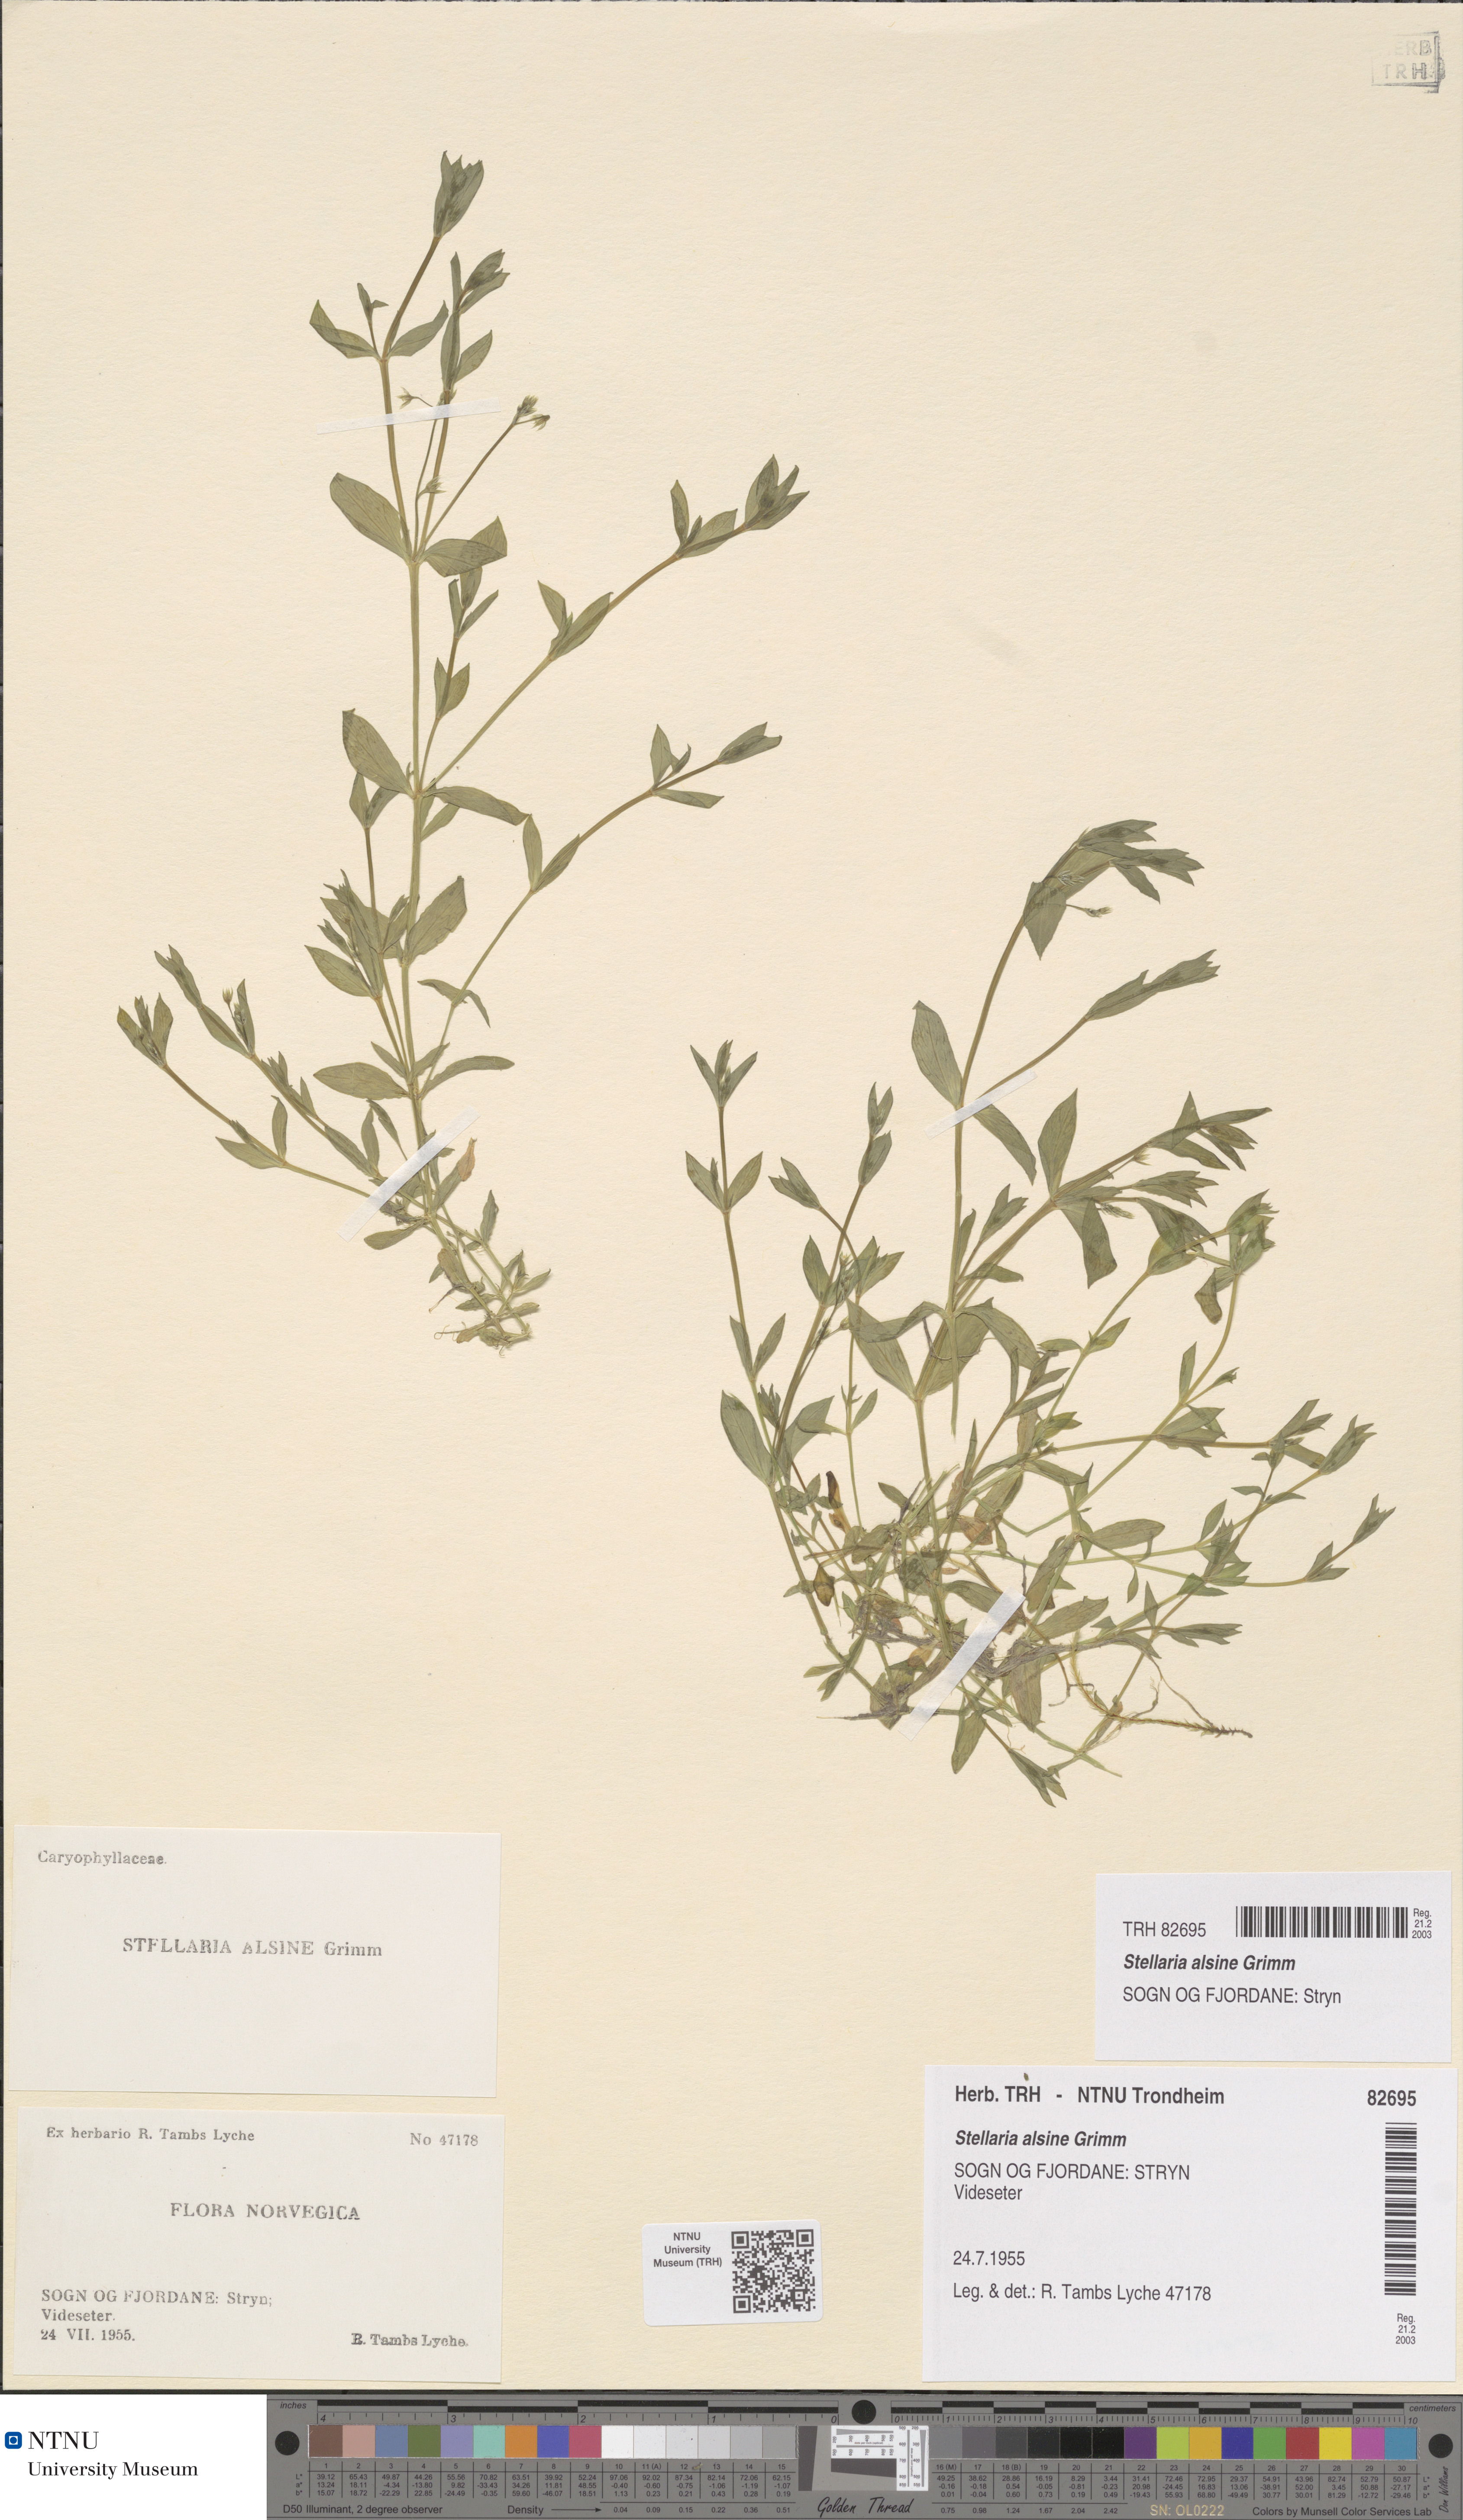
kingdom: Plantae
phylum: Tracheophyta
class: Magnoliopsida
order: Caryophyllales
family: Caryophyllaceae
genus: Stellaria
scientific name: Stellaria alsine
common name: Bog stitchwort
